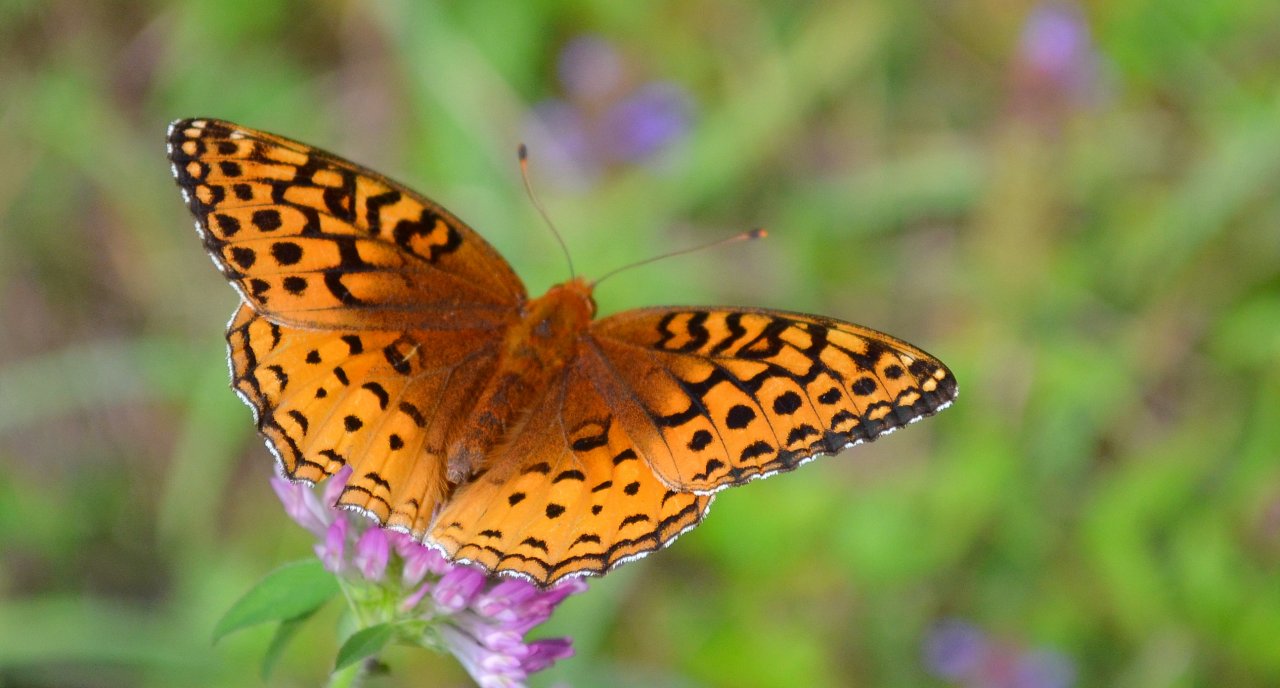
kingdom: Animalia
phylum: Arthropoda
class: Insecta
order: Lepidoptera
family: Nymphalidae
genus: Speyeria
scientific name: Speyeria cybele
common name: Great Spangled Fritillary
